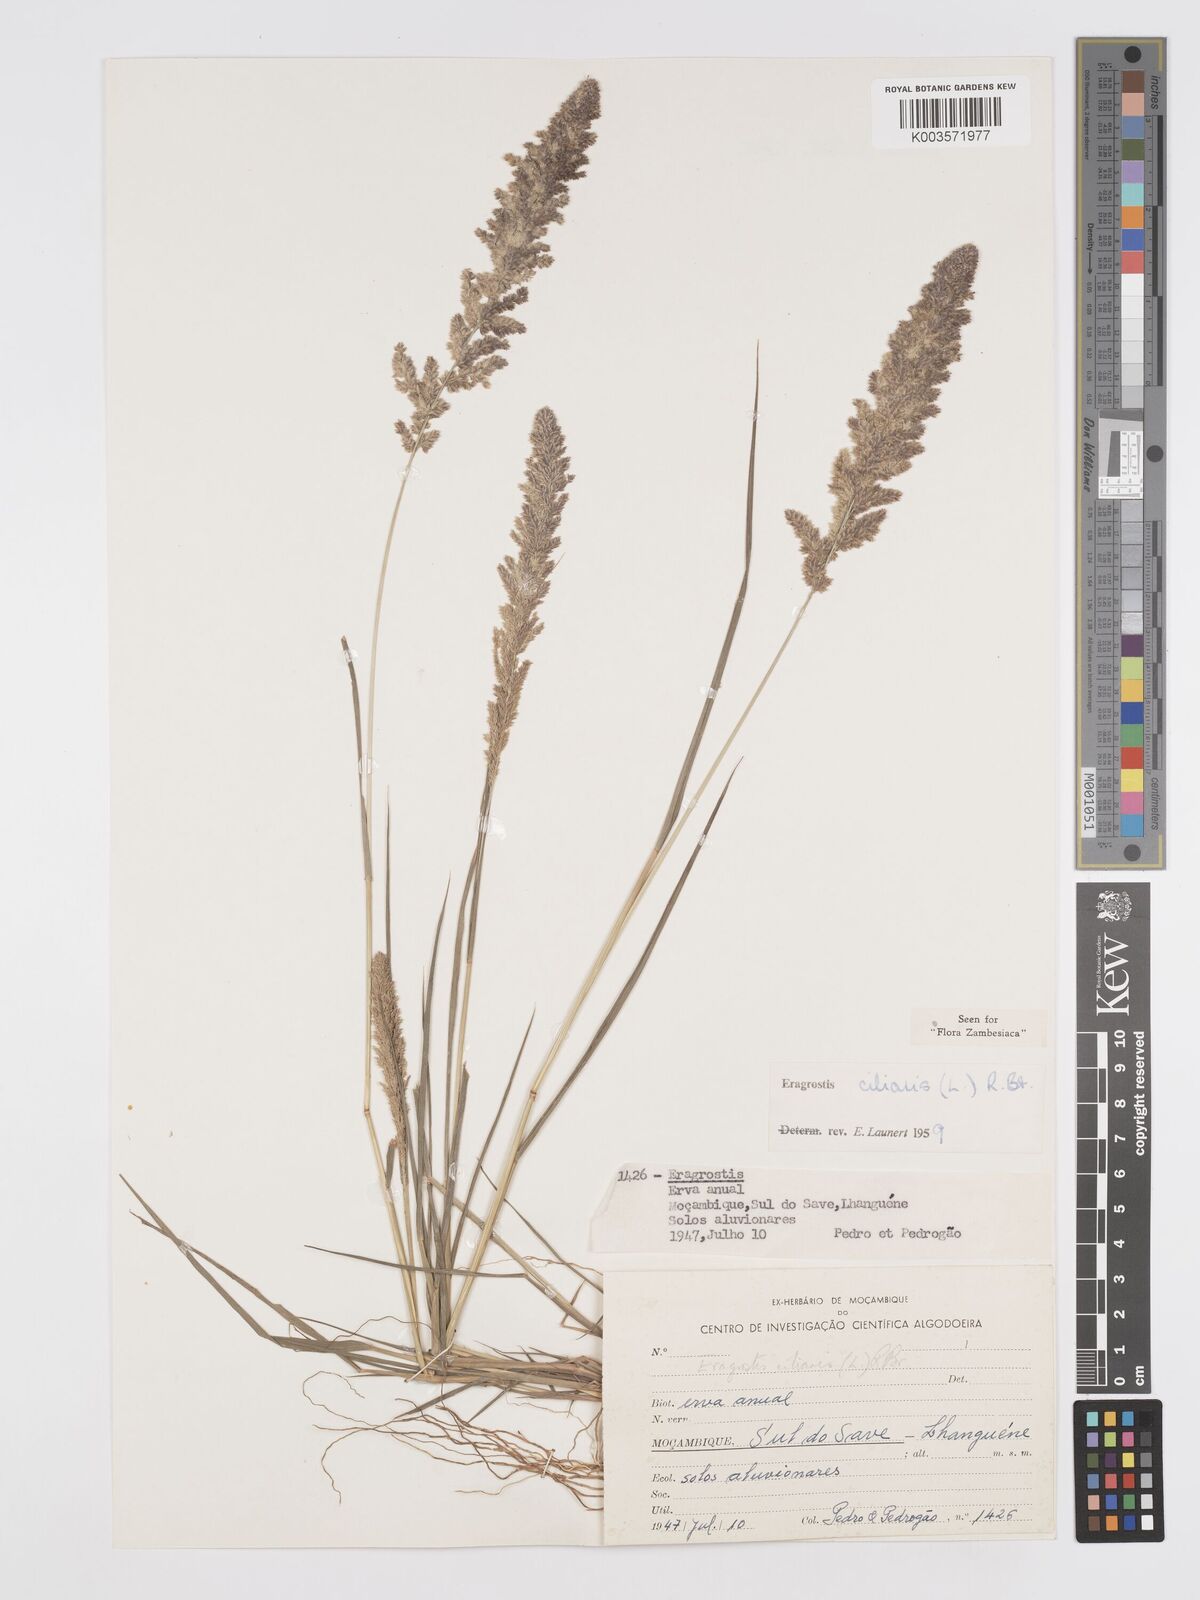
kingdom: Plantae
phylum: Tracheophyta
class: Liliopsida
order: Poales
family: Poaceae
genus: Eragrostis
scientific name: Eragrostis ciliaris
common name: Gophertail lovegrass
